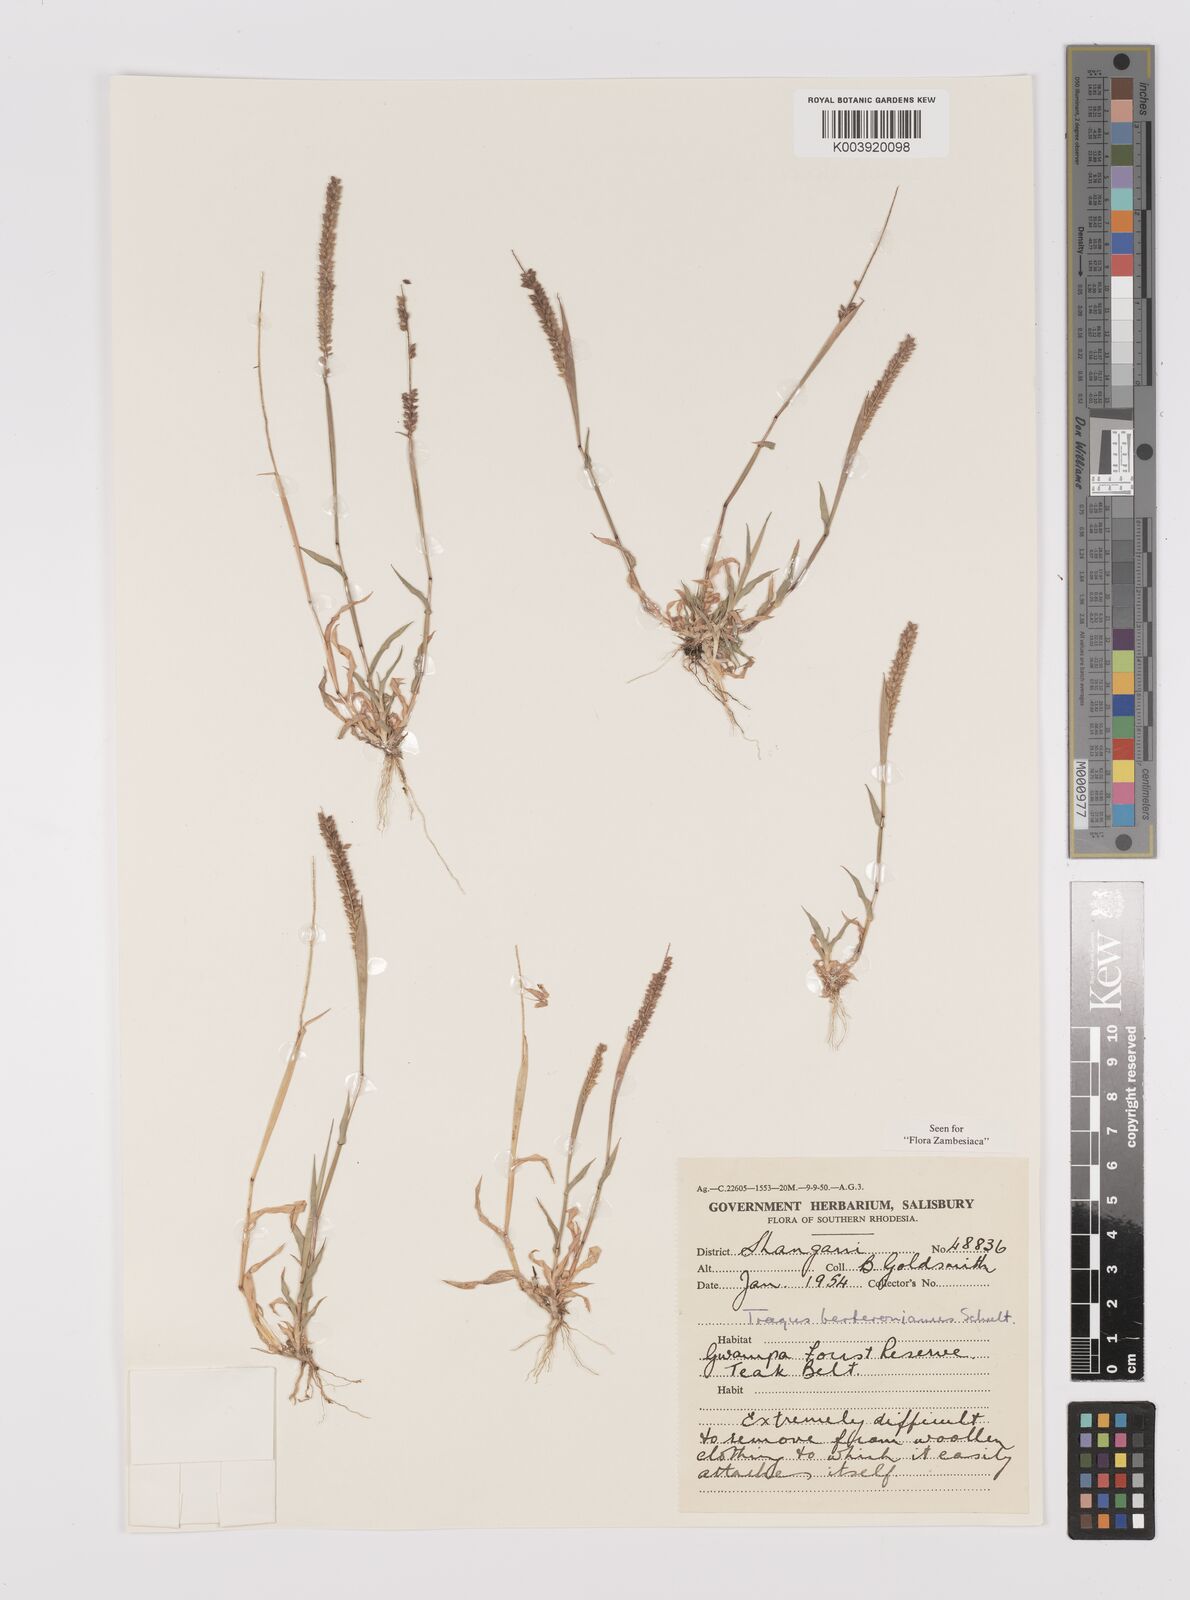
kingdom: Plantae
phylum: Tracheophyta
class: Liliopsida
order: Poales
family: Poaceae
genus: Tragus
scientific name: Tragus berteronianus
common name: African bur-grass
